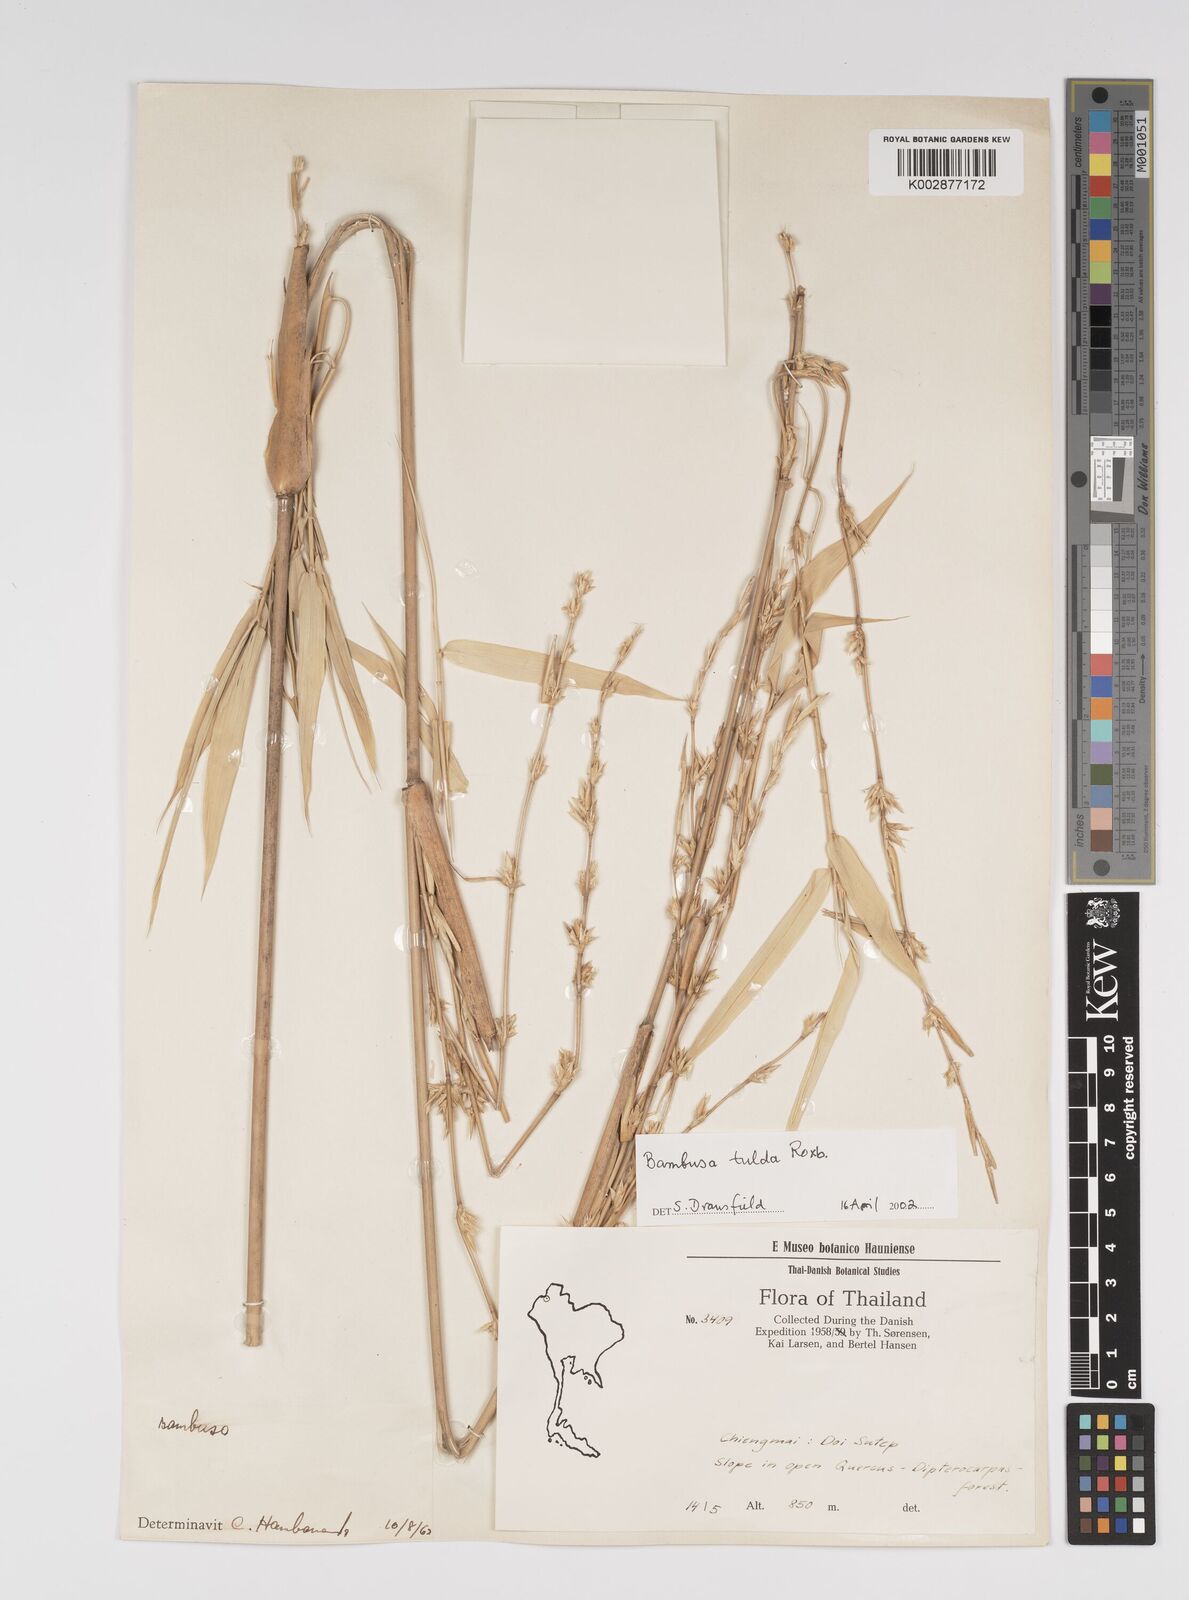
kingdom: Plantae
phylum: Tracheophyta
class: Liliopsida
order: Poales
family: Poaceae
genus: Bambusa
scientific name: Bambusa balcooa
